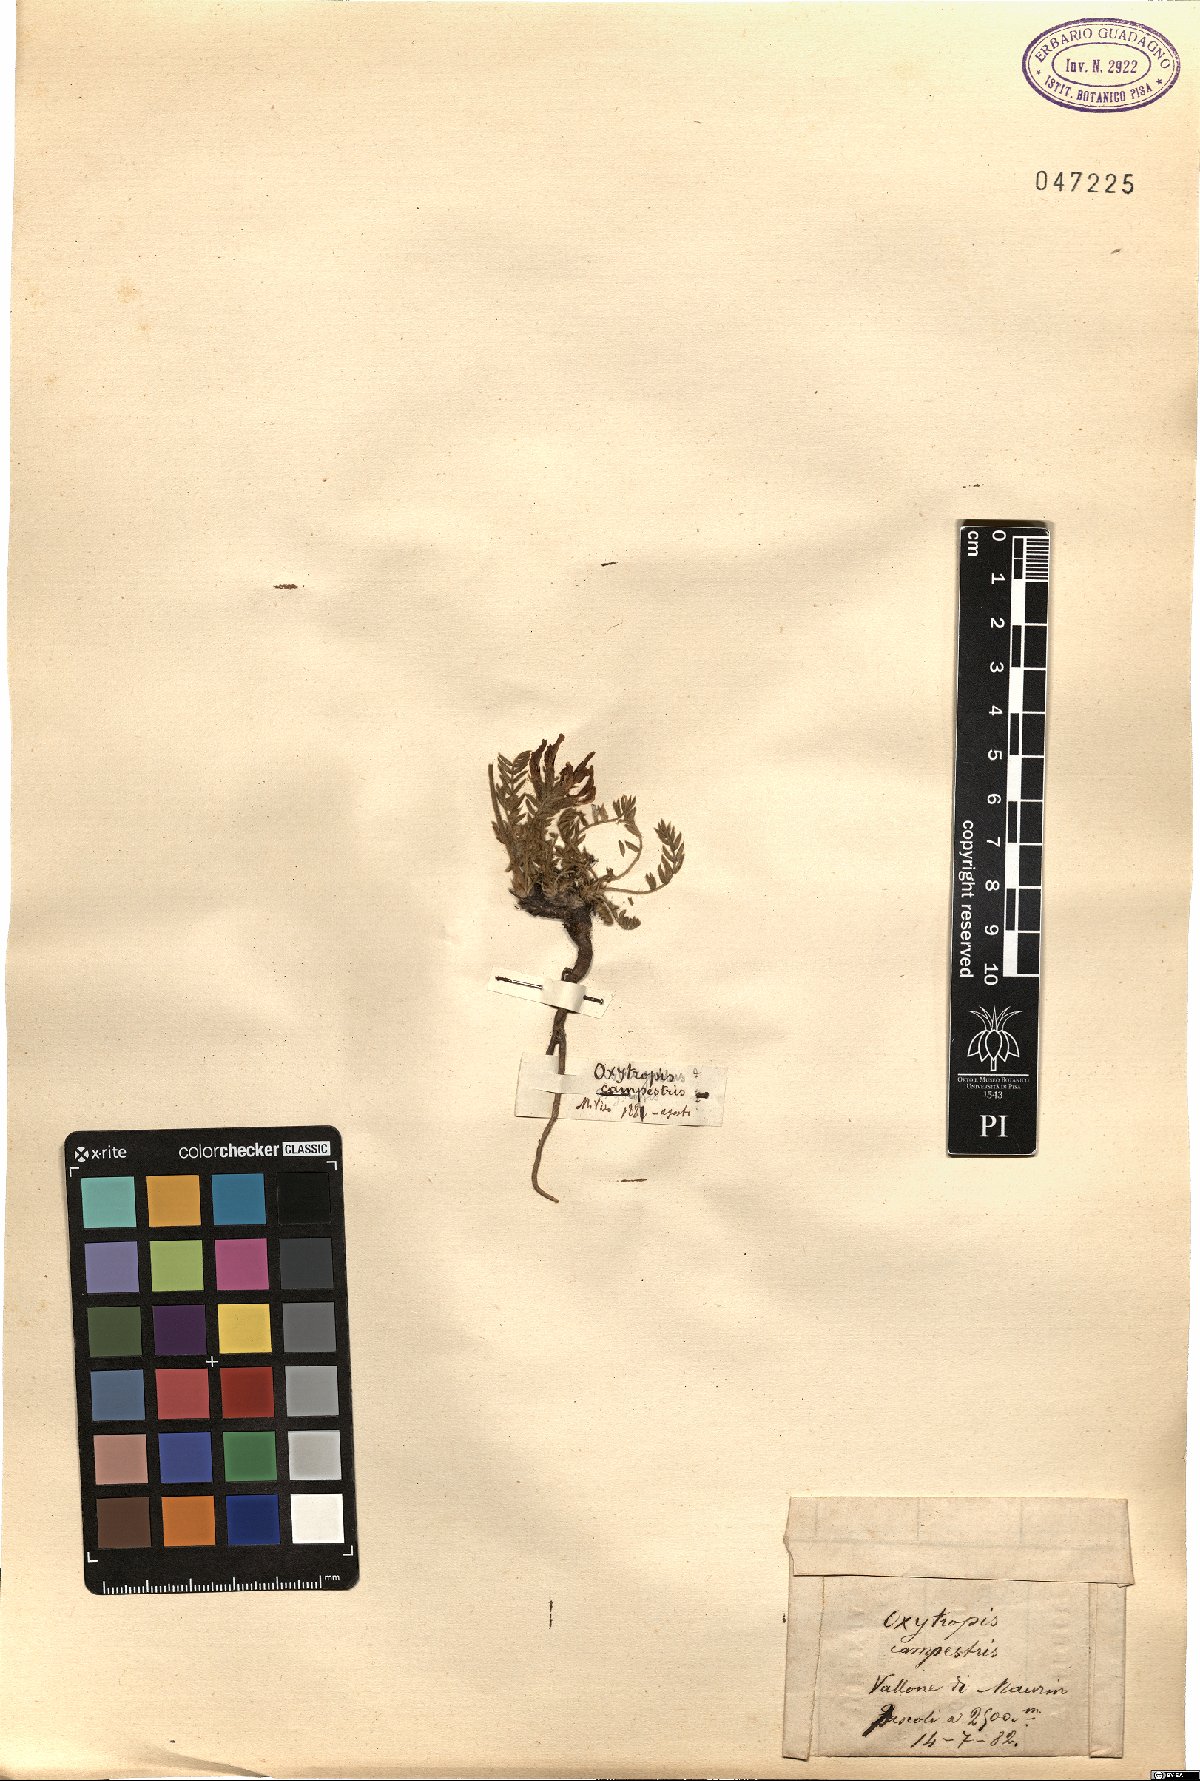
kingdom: Plantae
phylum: Tracheophyta
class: Magnoliopsida
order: Fabales
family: Fabaceae
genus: Oxytropis
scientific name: Oxytropis campestris
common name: Field locoweed
